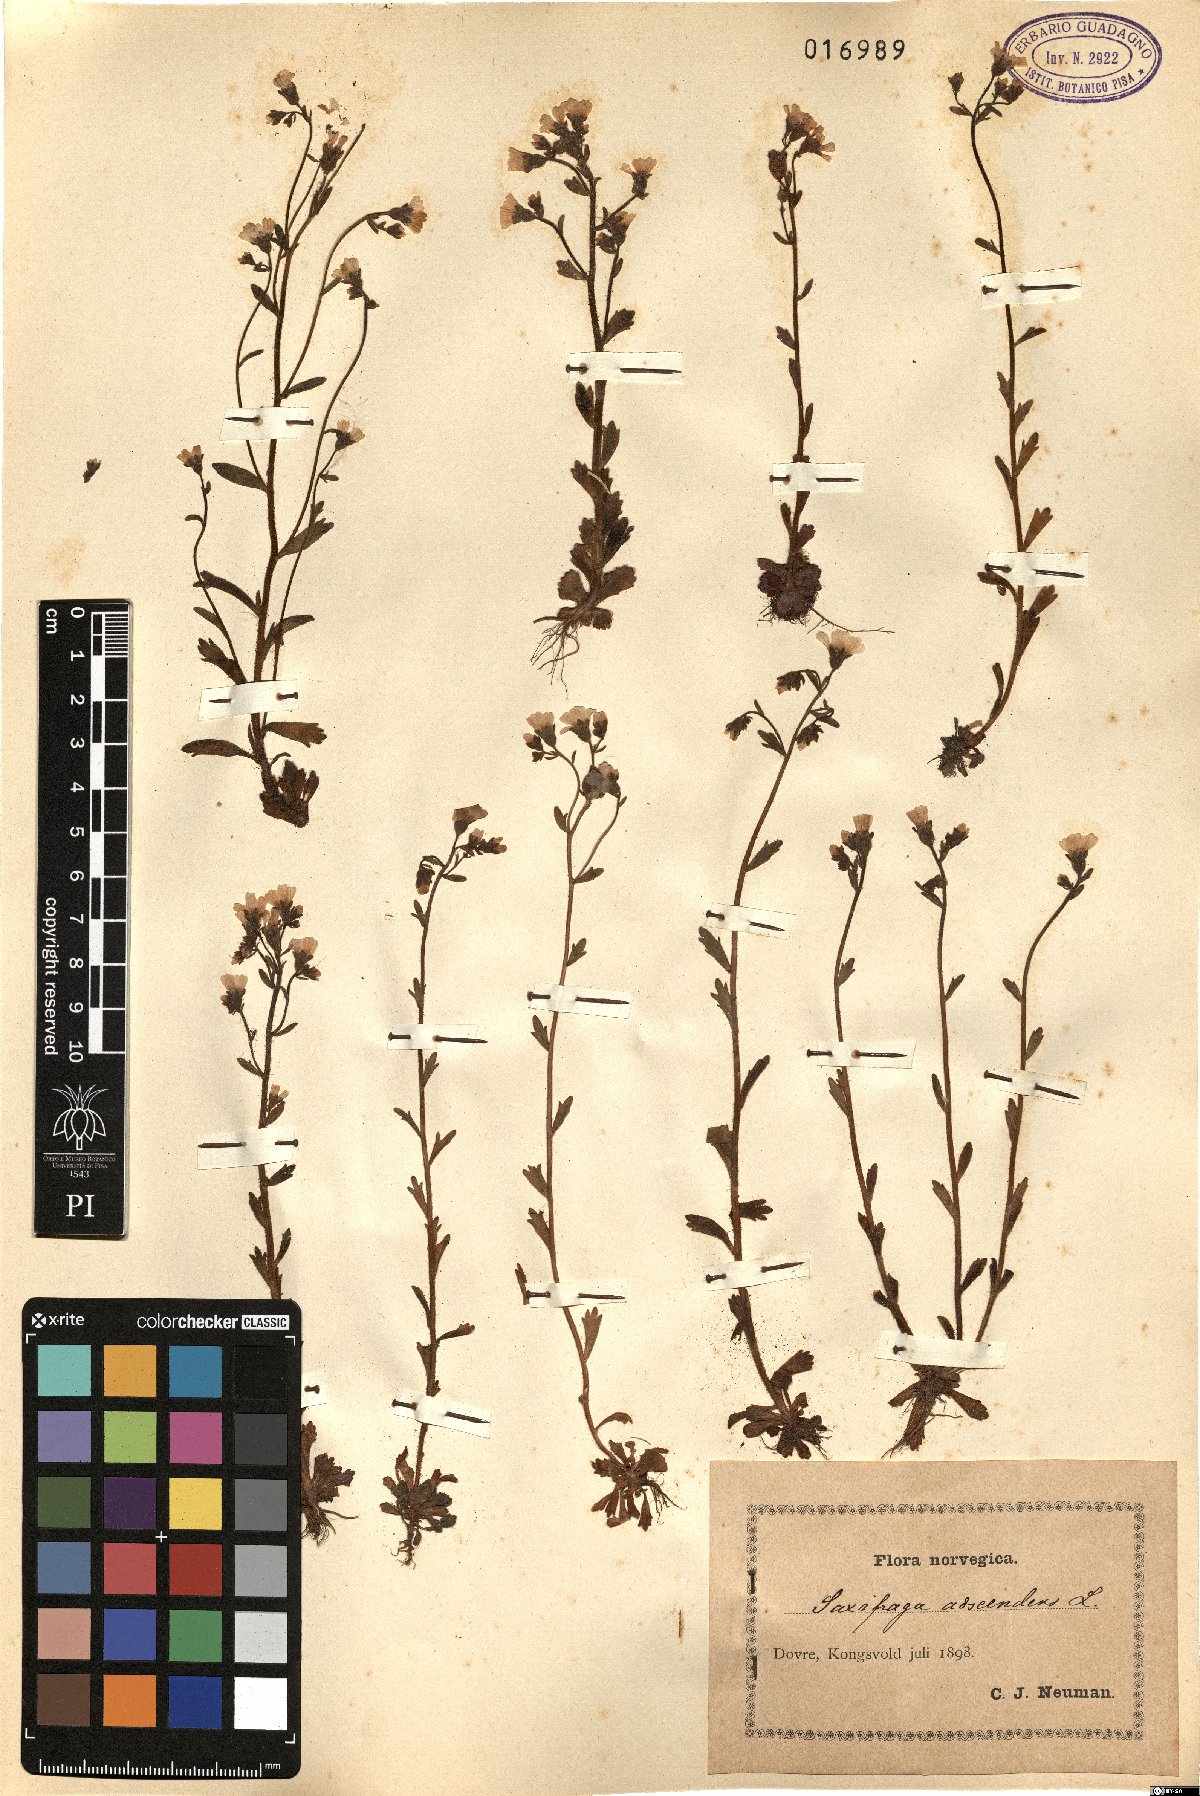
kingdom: Plantae
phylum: Tracheophyta
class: Magnoliopsida
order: Saxifragales
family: Saxifragaceae
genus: Saxifraga
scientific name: Saxifraga adscendens
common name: Ascending saxifrage
